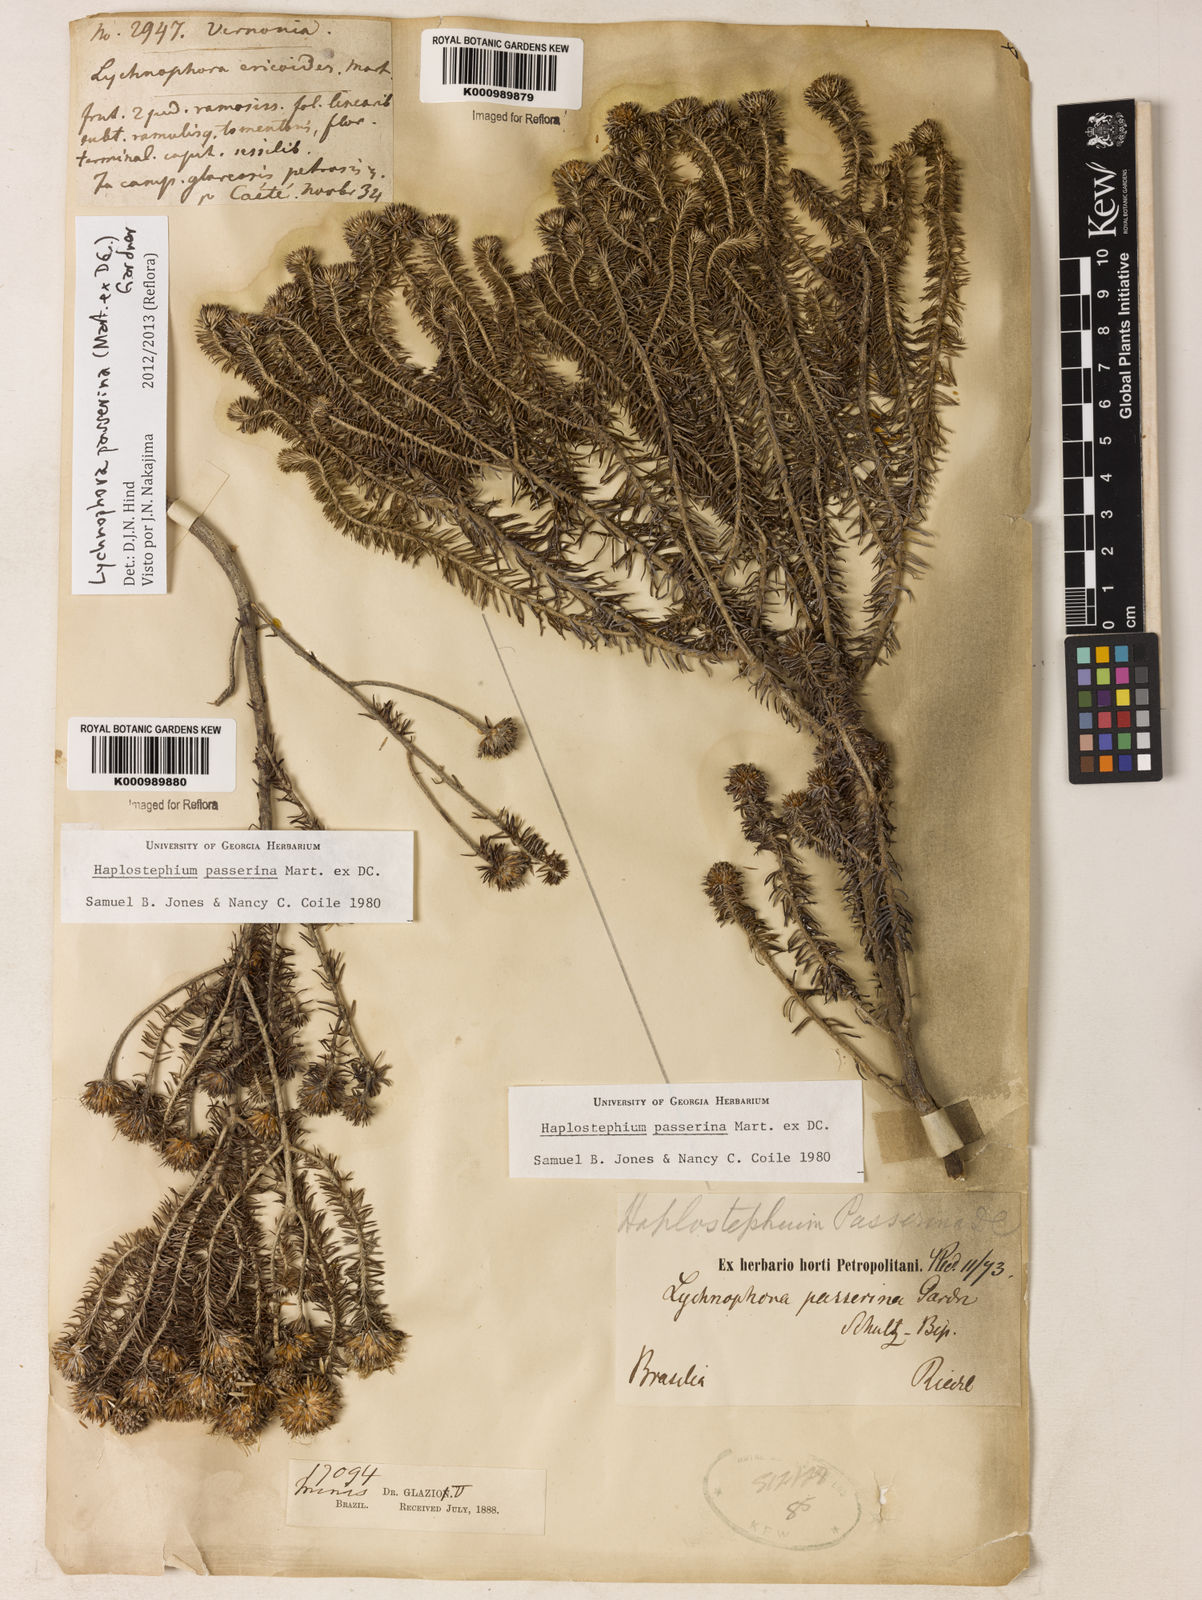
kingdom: Plantae
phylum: Tracheophyta
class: Magnoliopsida
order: Asterales
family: Asteraceae
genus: Lychnophora
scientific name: Lychnophora passerina
